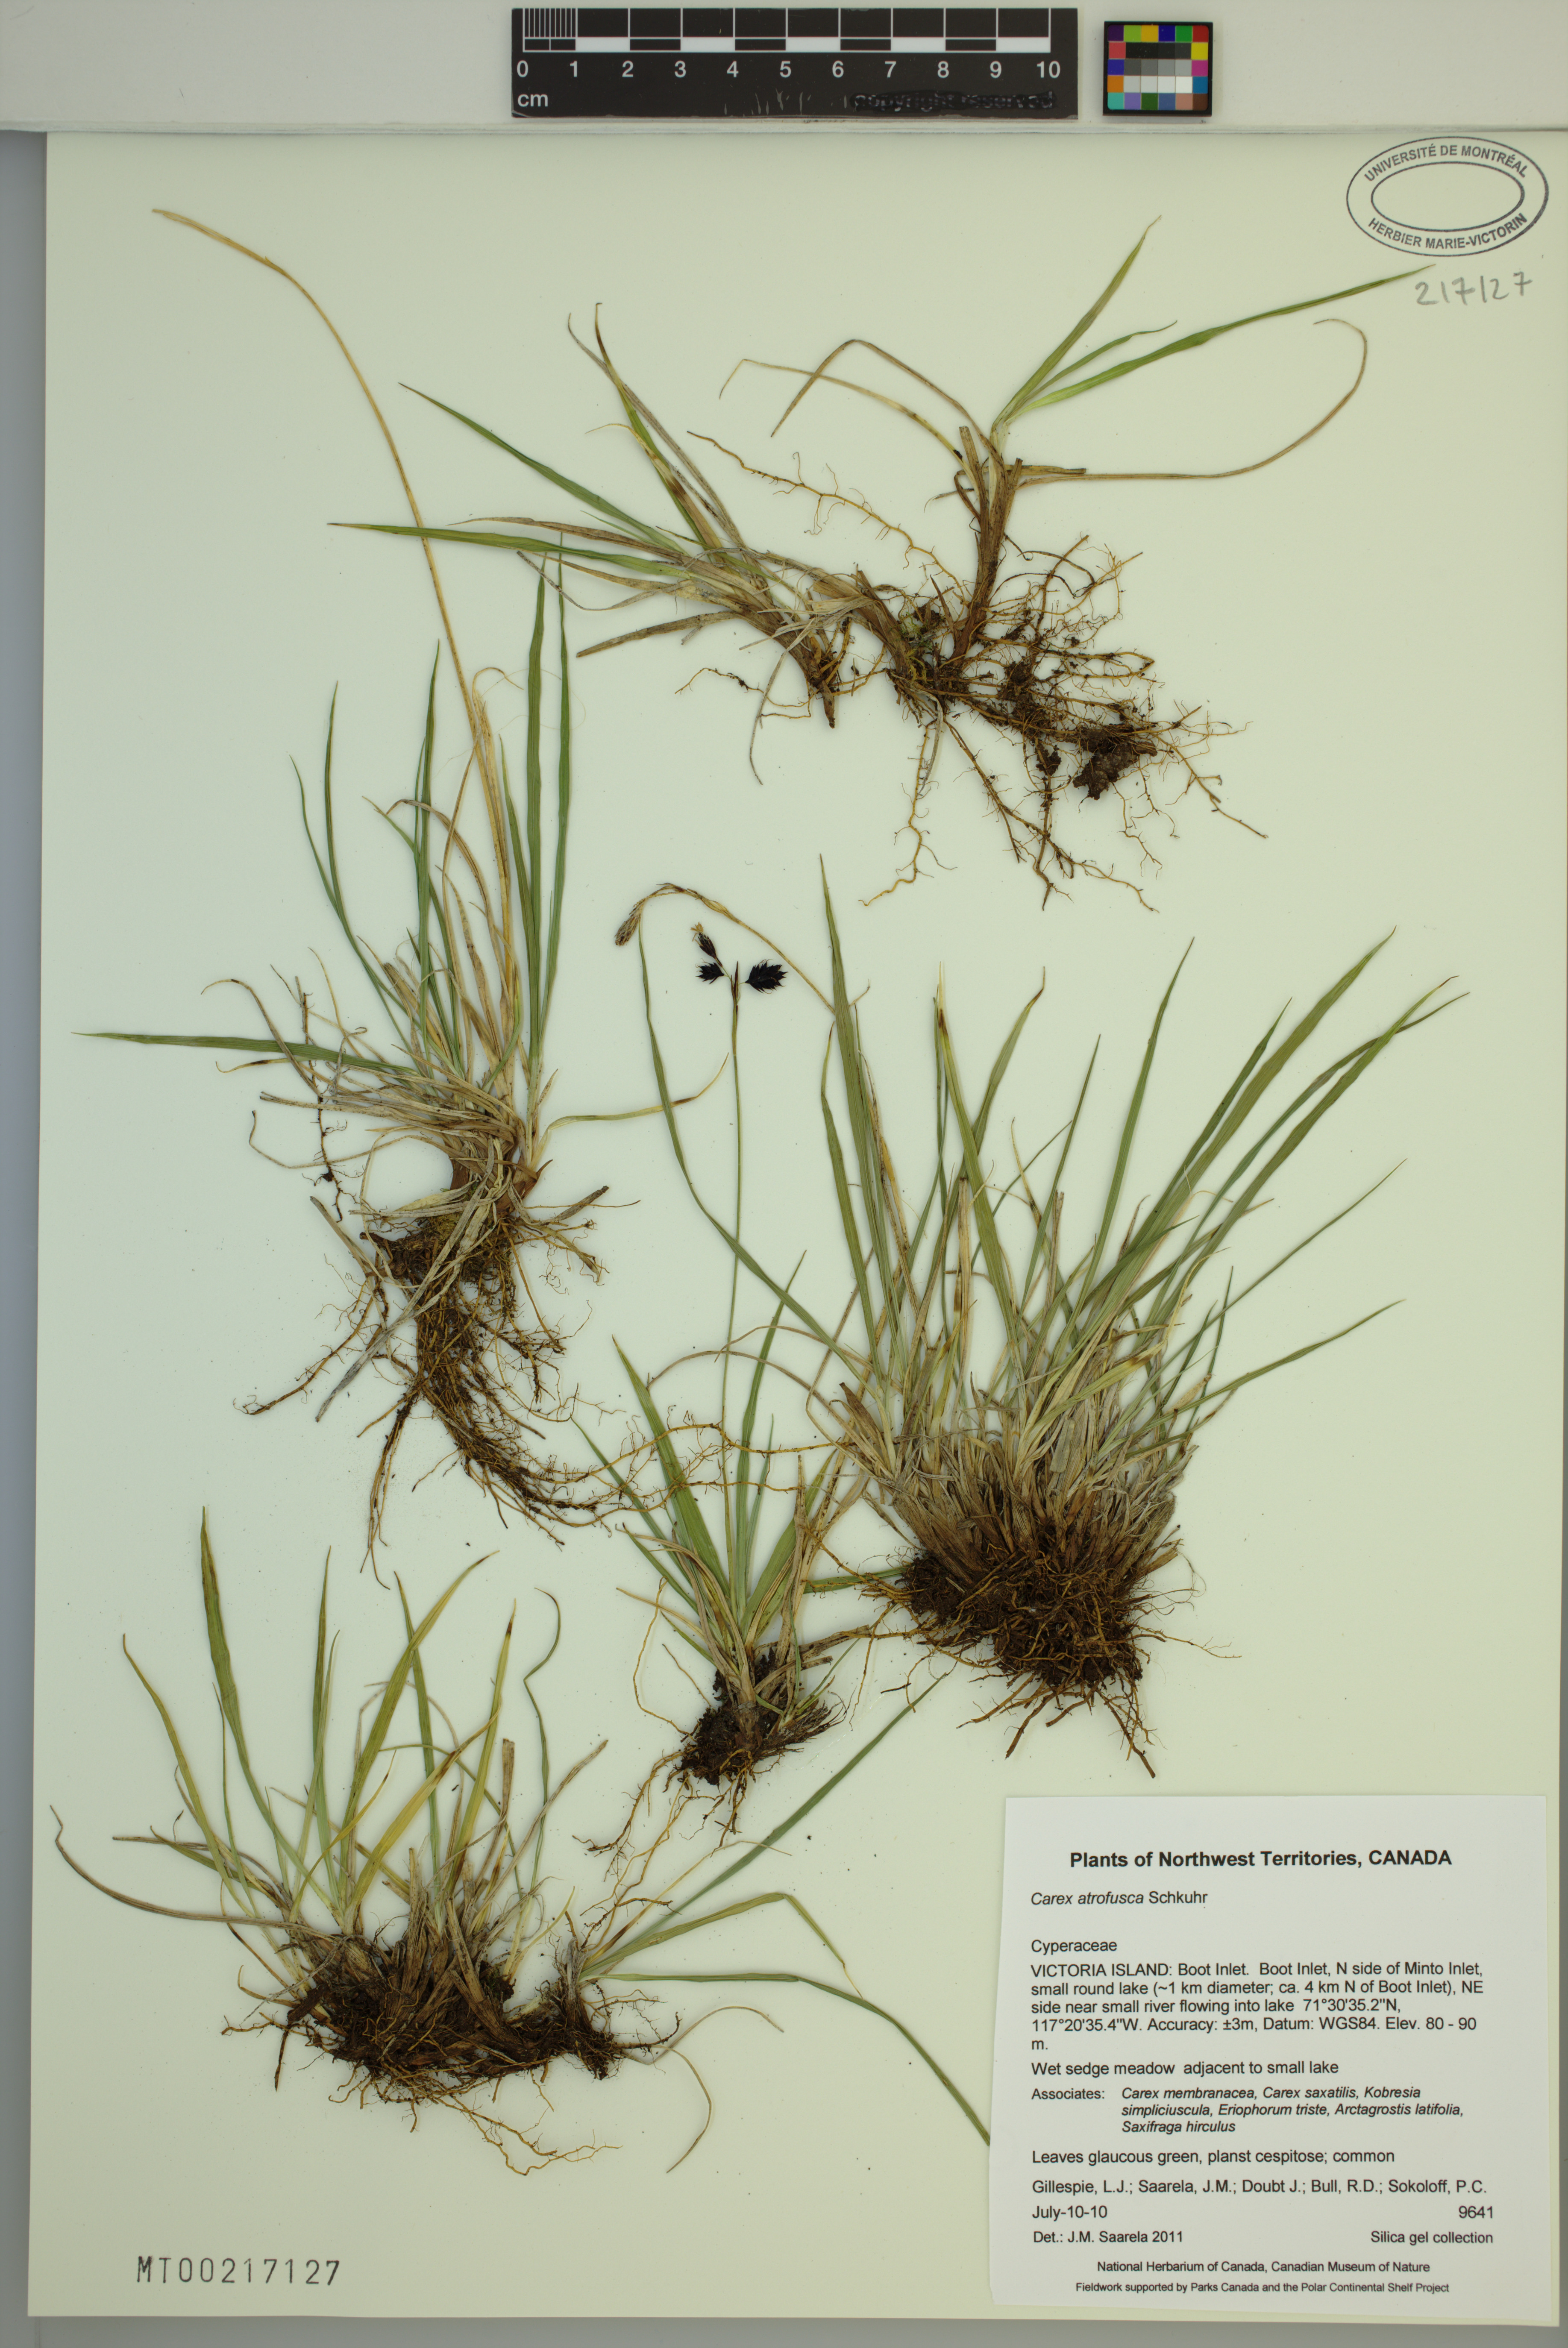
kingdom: Plantae
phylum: Tracheophyta
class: Liliopsida
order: Poales
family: Cyperaceae
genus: Carex
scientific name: Carex atrofusca
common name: Scorched alpine-sedge
